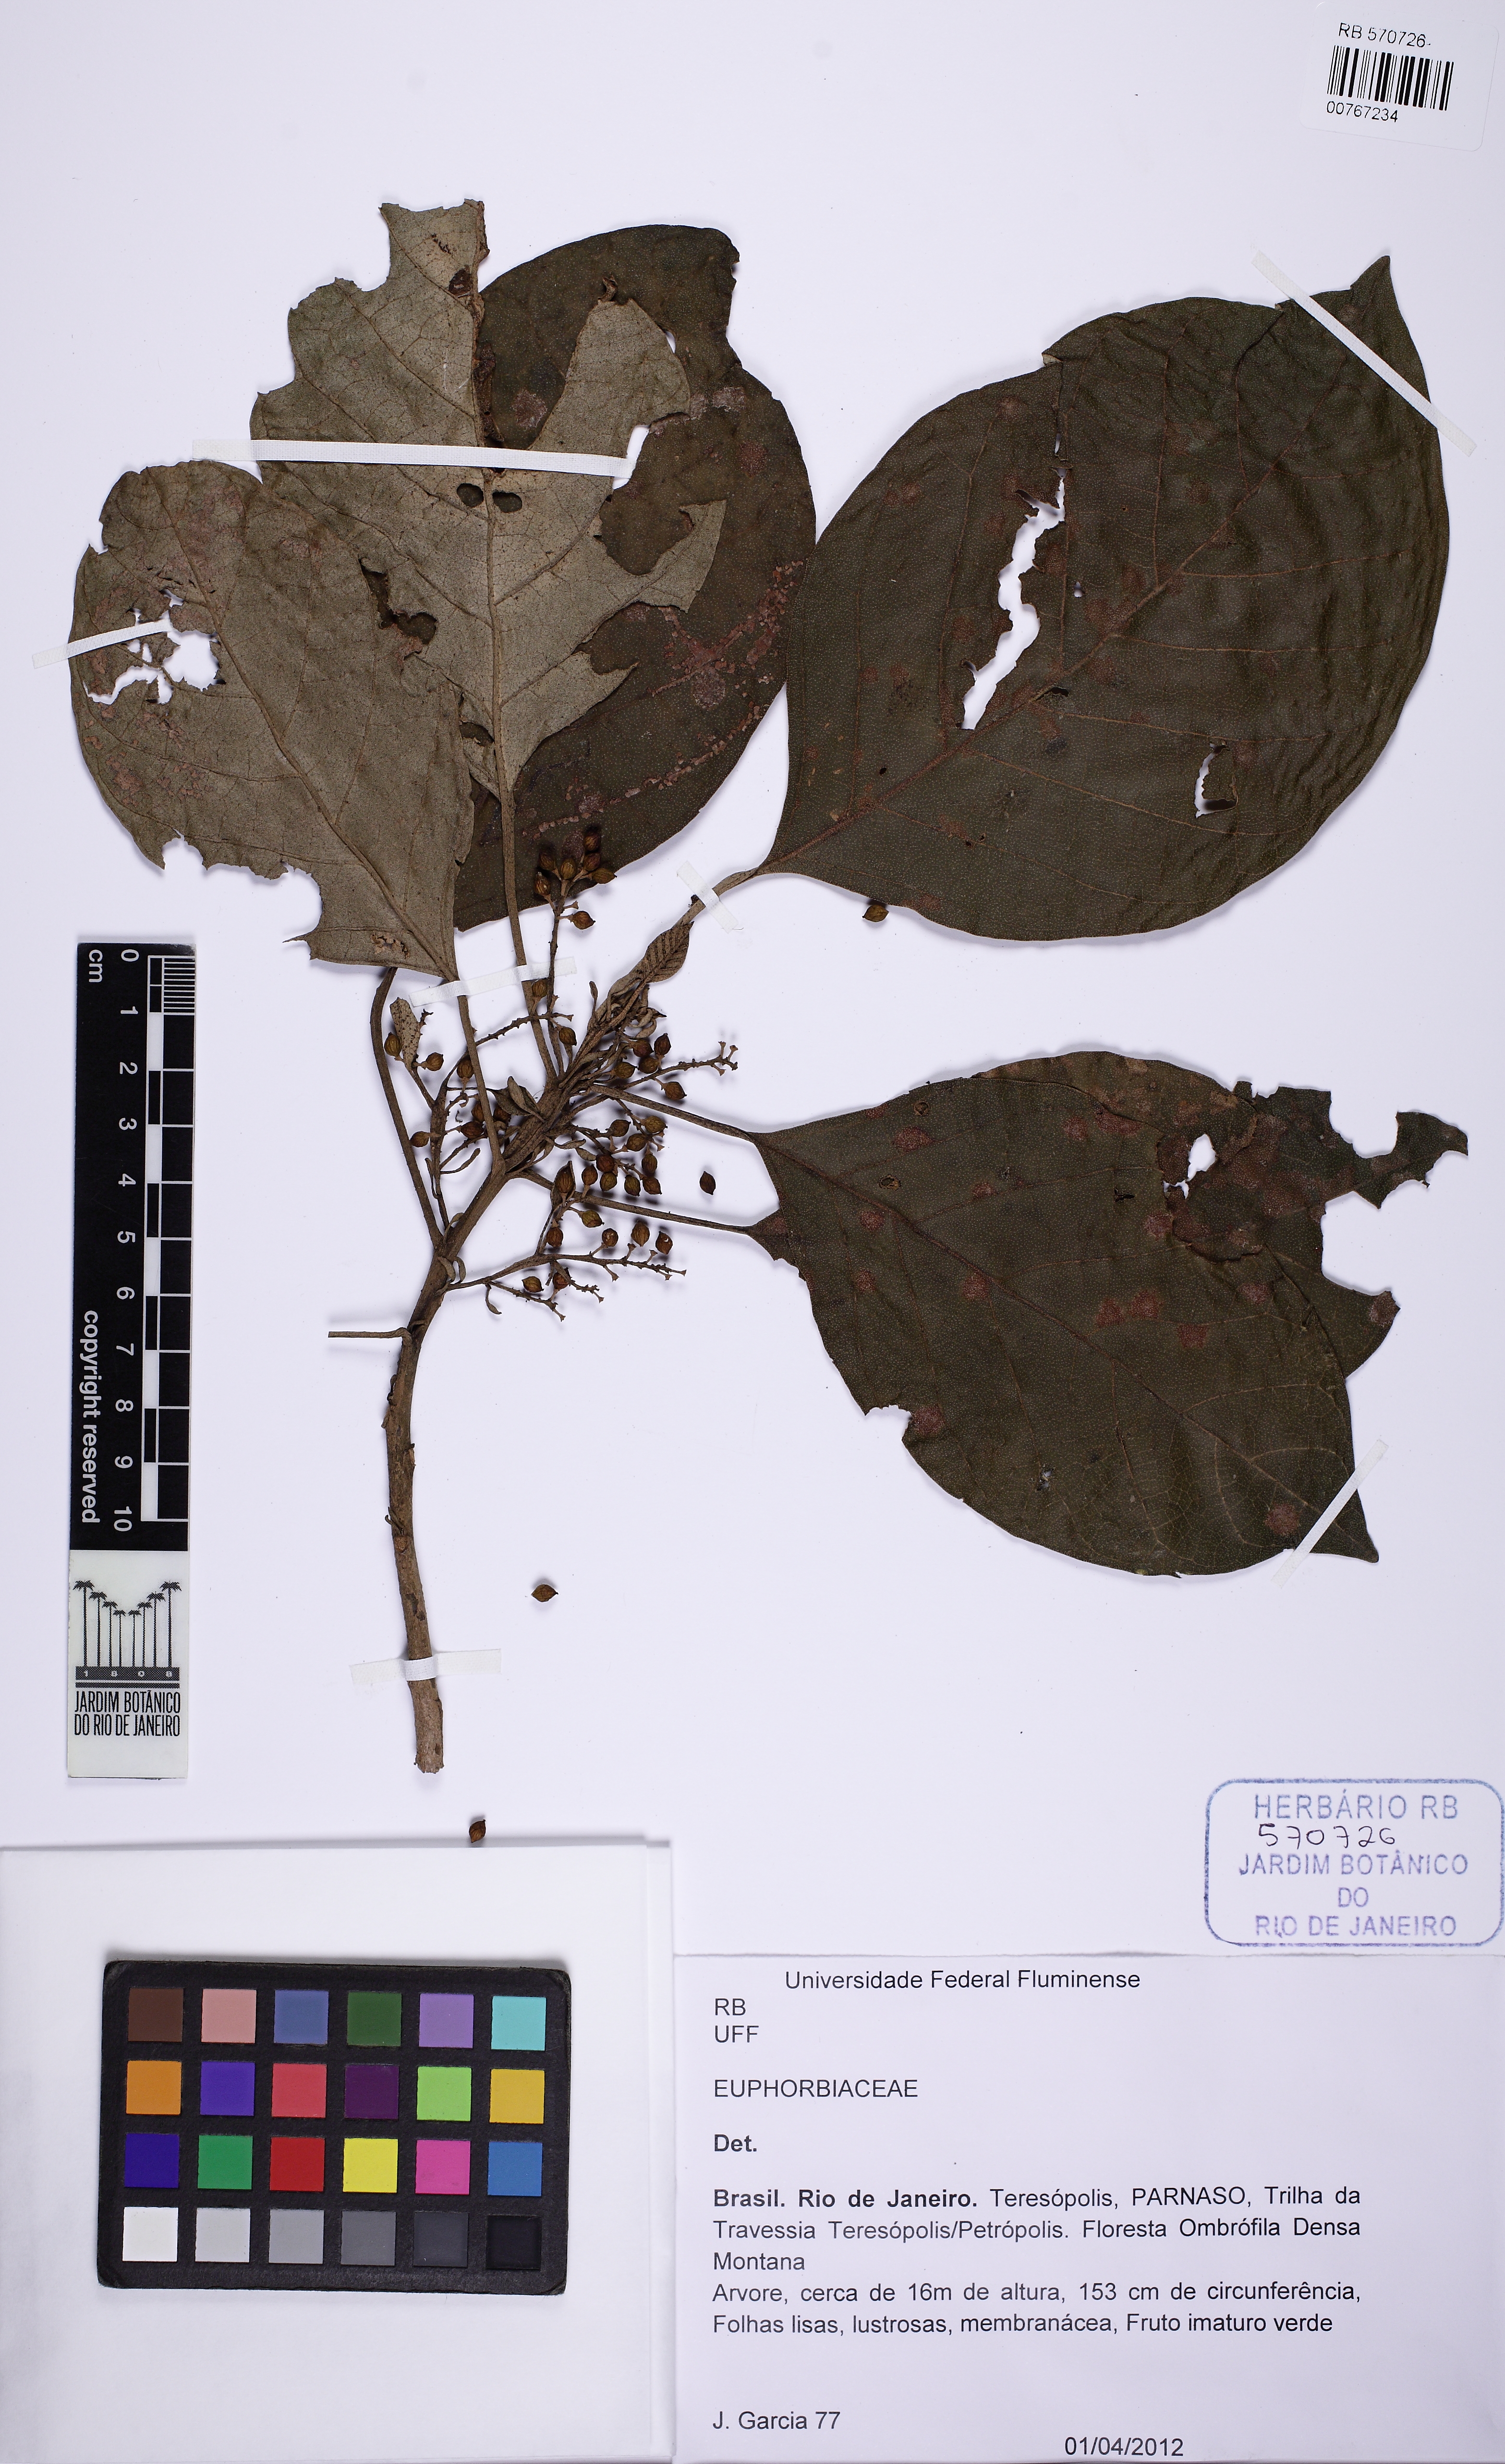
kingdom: Plantae
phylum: Tracheophyta
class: Magnoliopsida
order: Malpighiales
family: Phyllanthaceae
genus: Hieronyma
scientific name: Hieronyma alchorneoides
